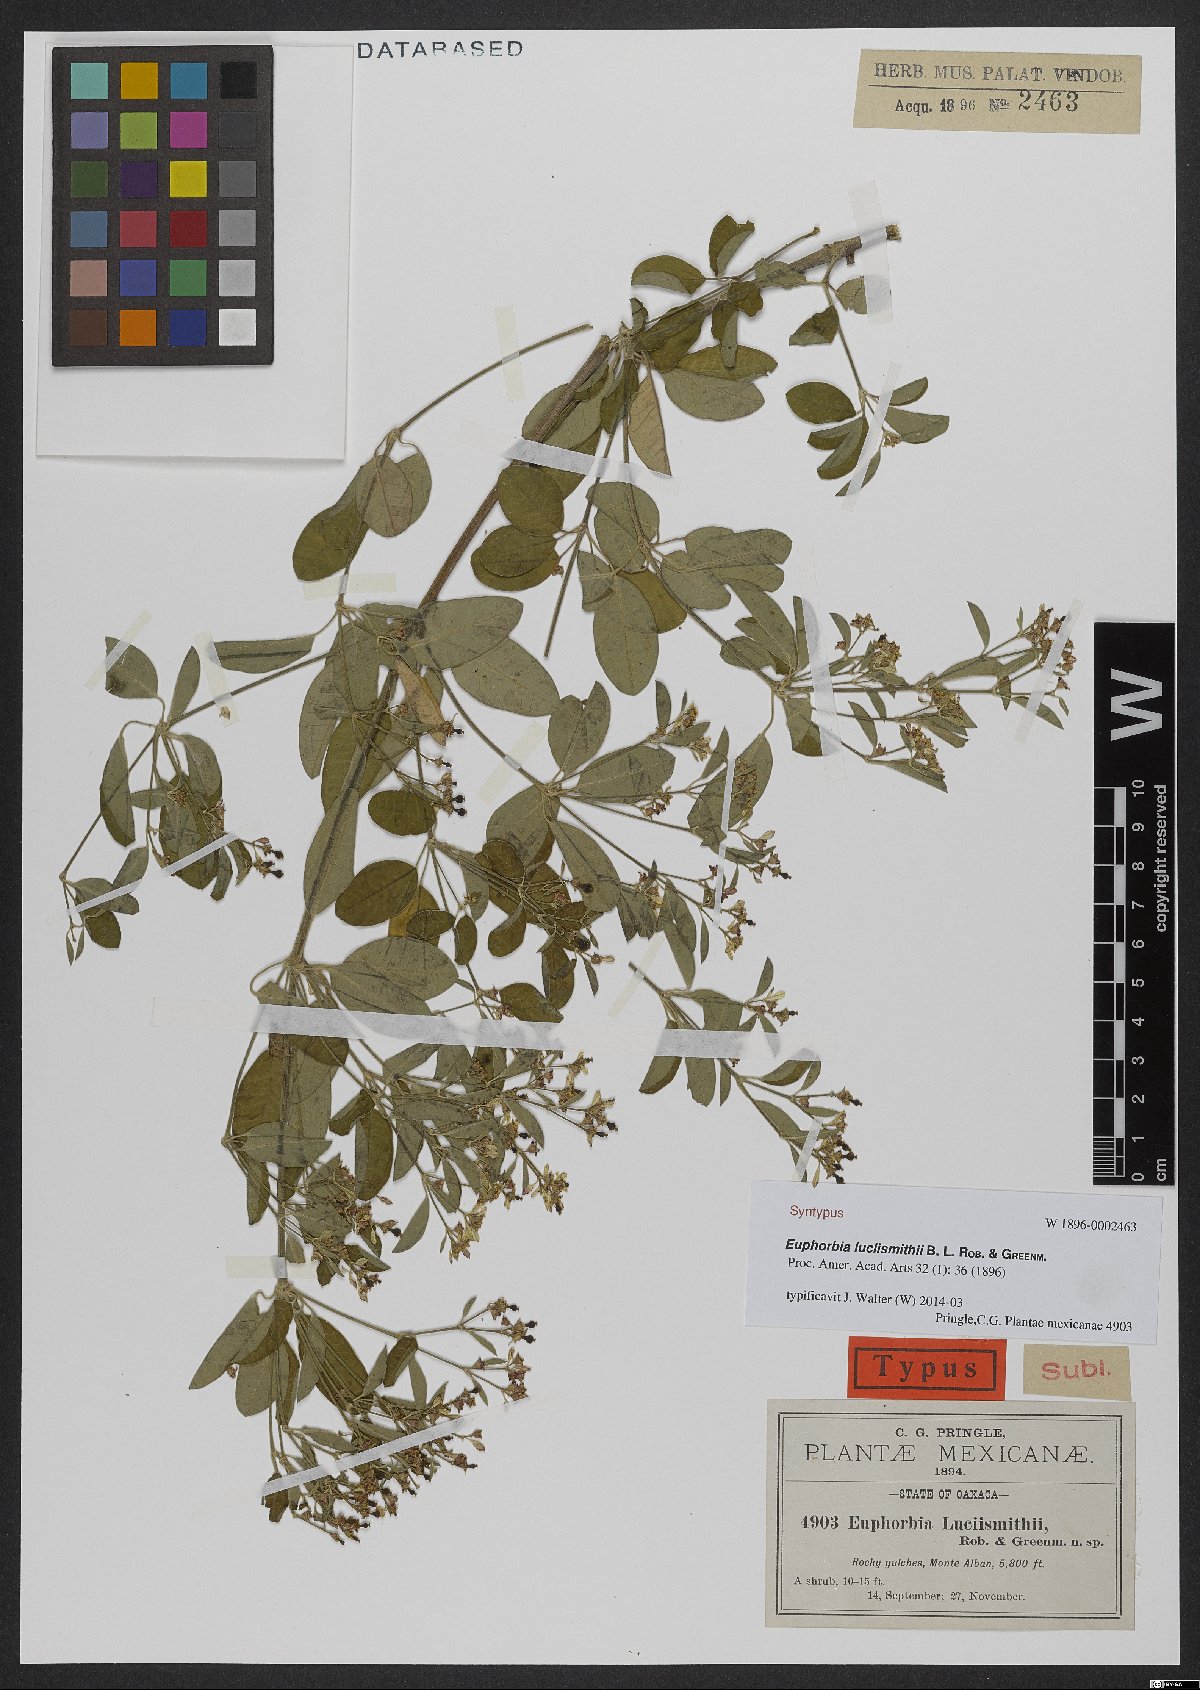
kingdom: Plantae
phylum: Tracheophyta
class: Magnoliopsida
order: Malpighiales
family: Euphorbiaceae
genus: Euphorbia
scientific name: Euphorbia lucii-smithii
